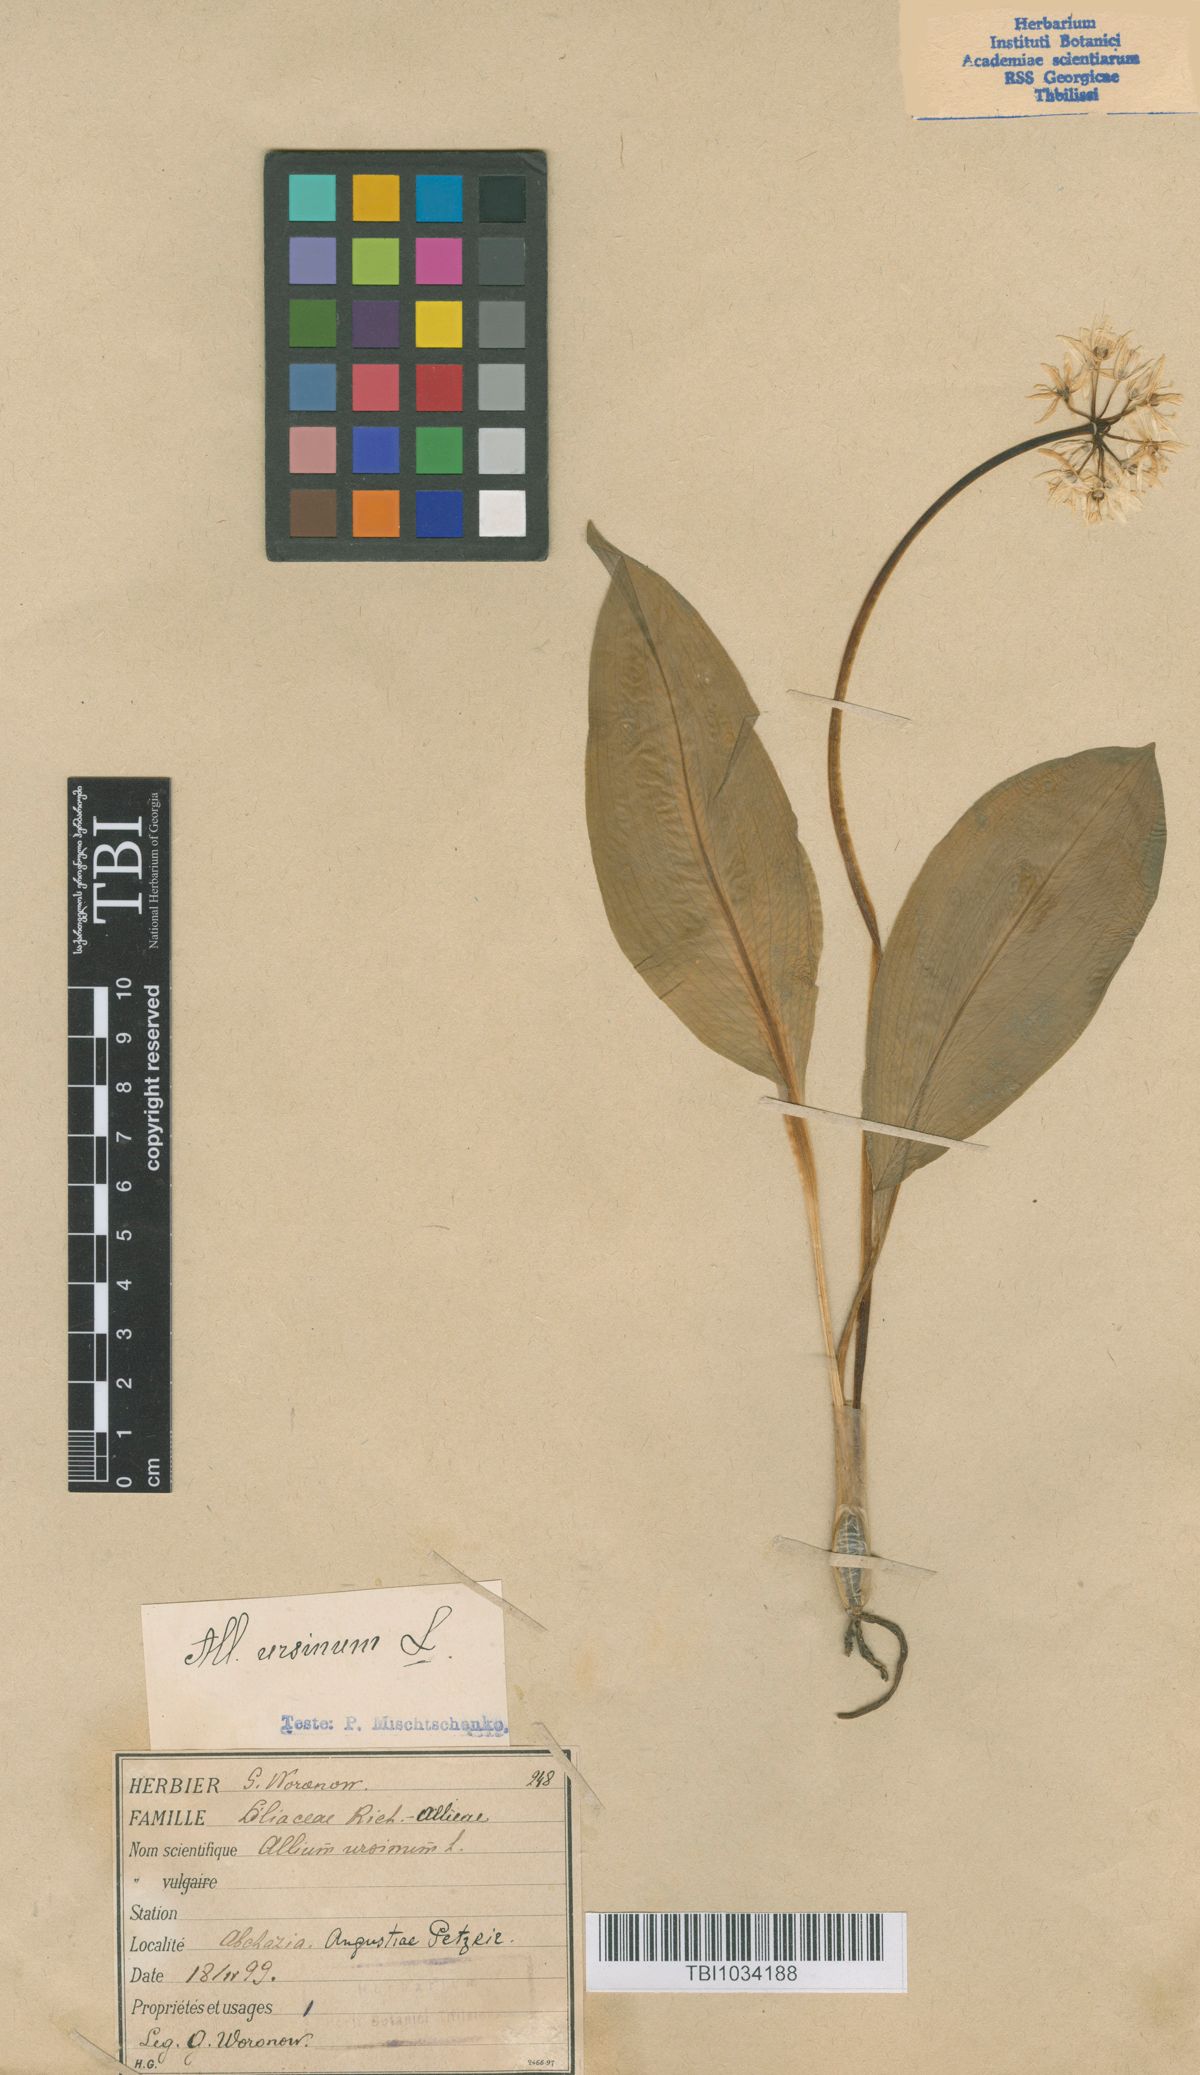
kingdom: Plantae
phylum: Tracheophyta
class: Liliopsida
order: Asparagales
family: Amaryllidaceae
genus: Allium
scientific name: Allium ursinum
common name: Ramsons
